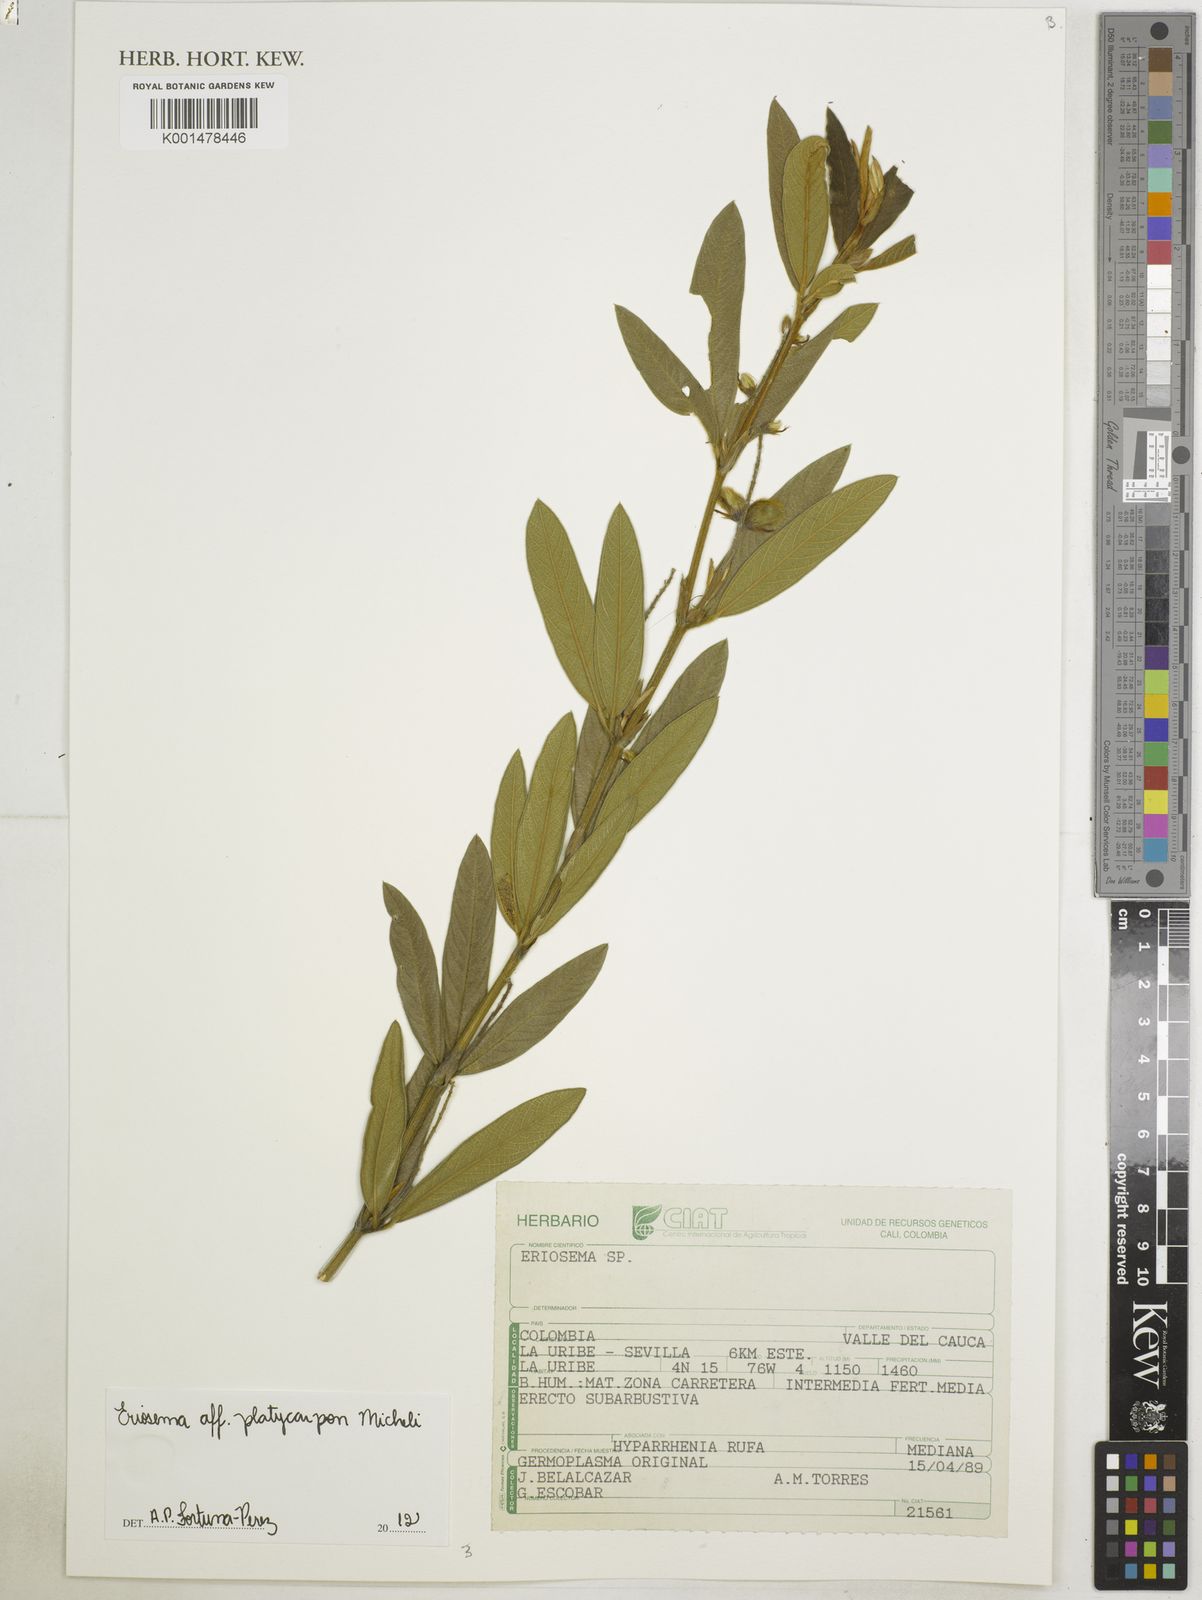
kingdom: Plantae
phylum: Tracheophyta
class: Magnoliopsida
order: Fabales
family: Fabaceae
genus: Eriosema
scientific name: Eriosema platycarpon
